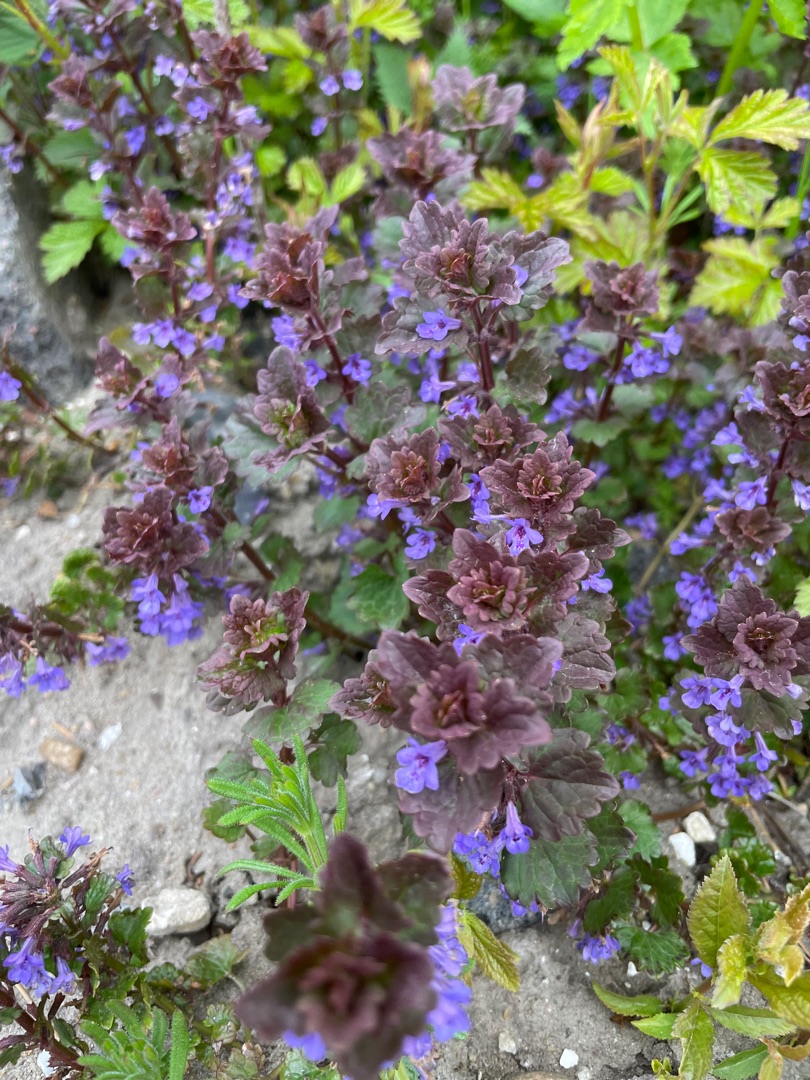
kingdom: Plantae
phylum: Tracheophyta
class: Magnoliopsida
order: Lamiales
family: Lamiaceae
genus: Glechoma
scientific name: Glechoma hederacea
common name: Korsknap
